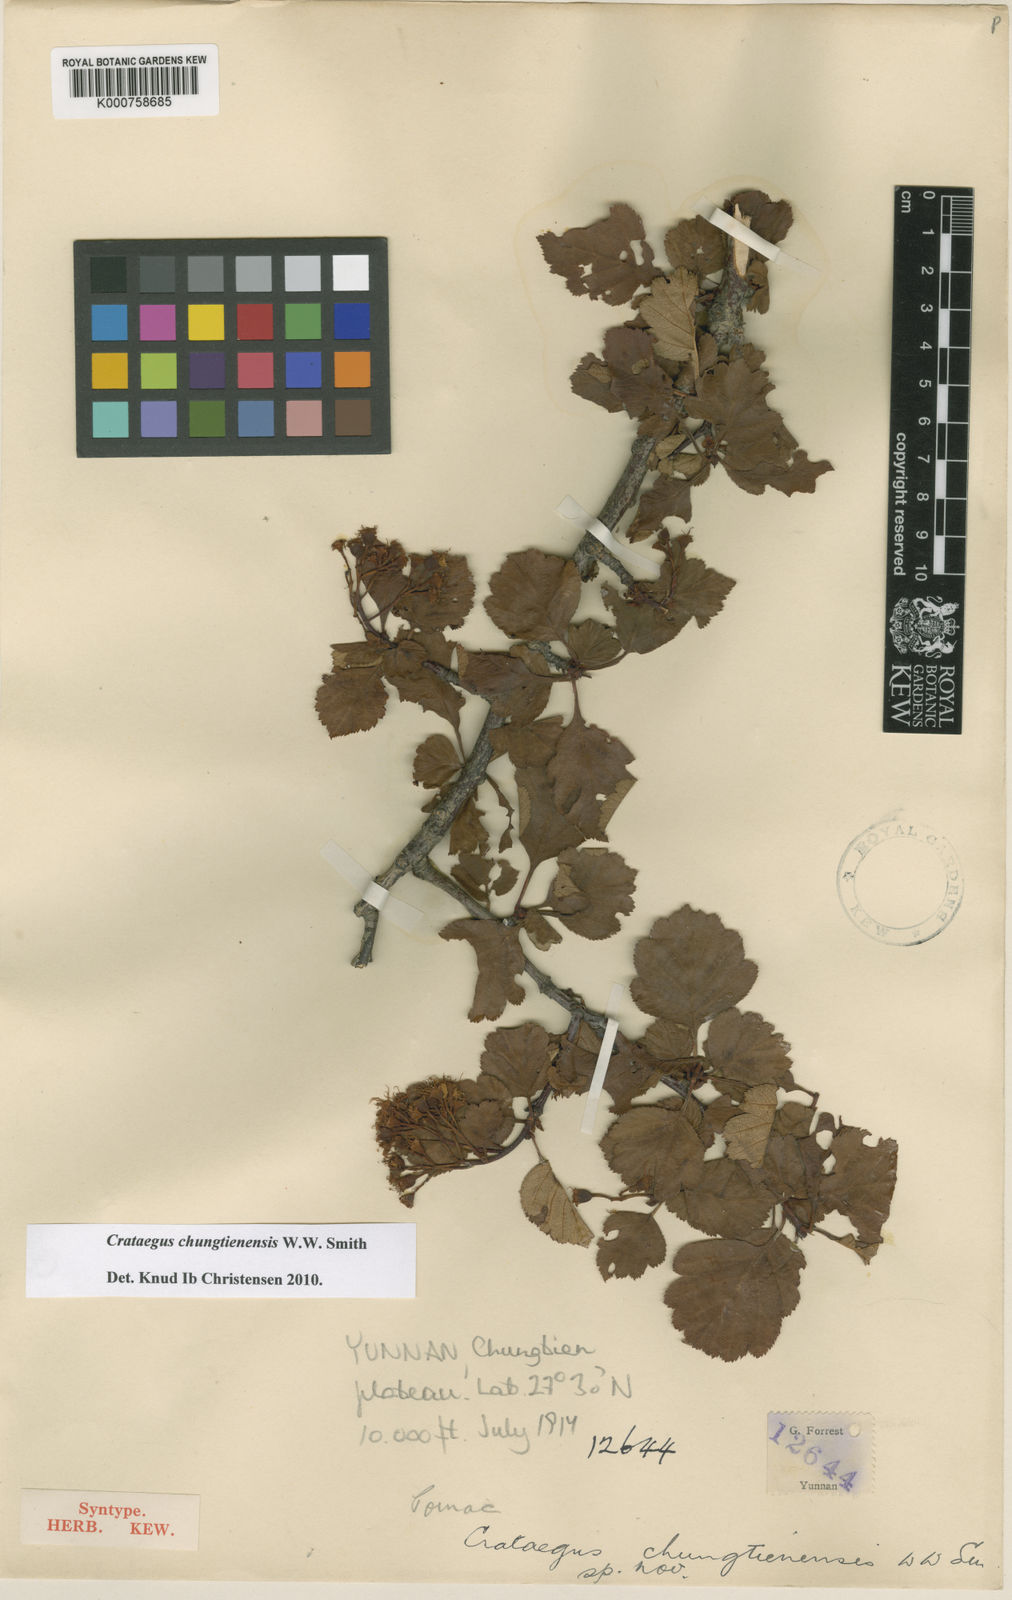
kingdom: Plantae
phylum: Tracheophyta
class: Magnoliopsida
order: Rosales
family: Rosaceae
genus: Crataegus
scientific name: Crataegus chungtienensis
